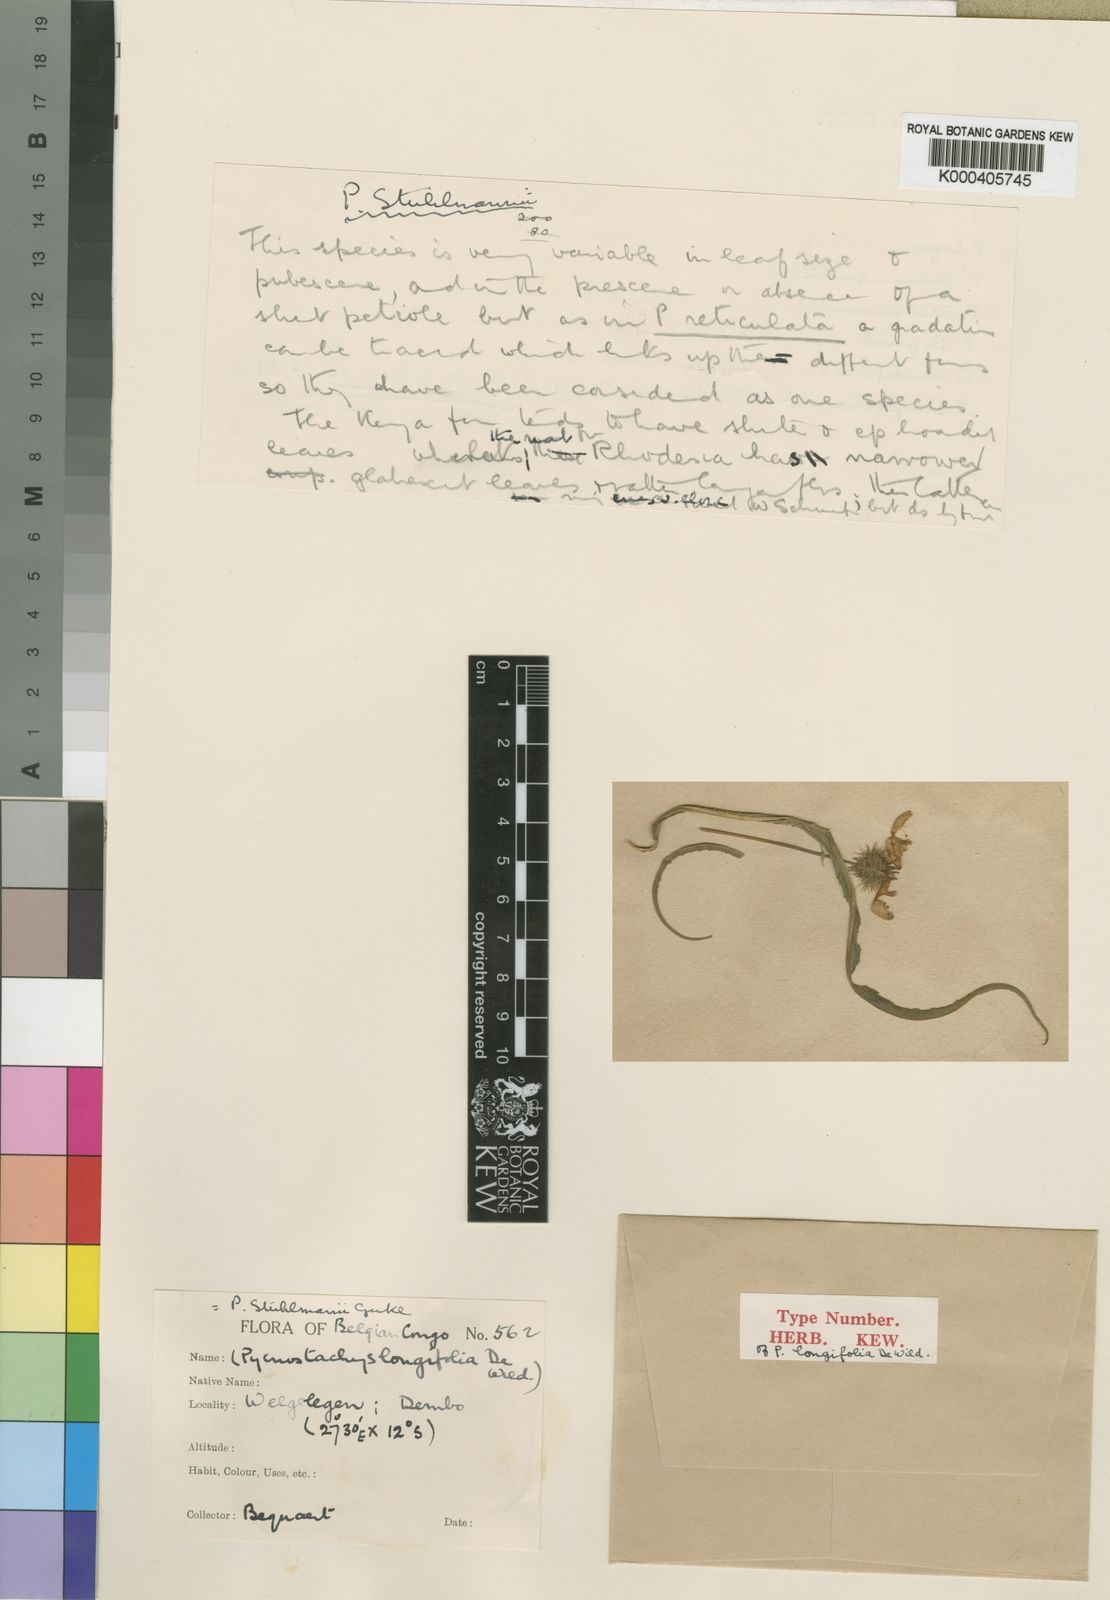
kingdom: Plantae
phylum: Tracheophyta
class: Magnoliopsida
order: Lamiales
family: Lamiaceae
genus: Coleus
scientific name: Coleus
